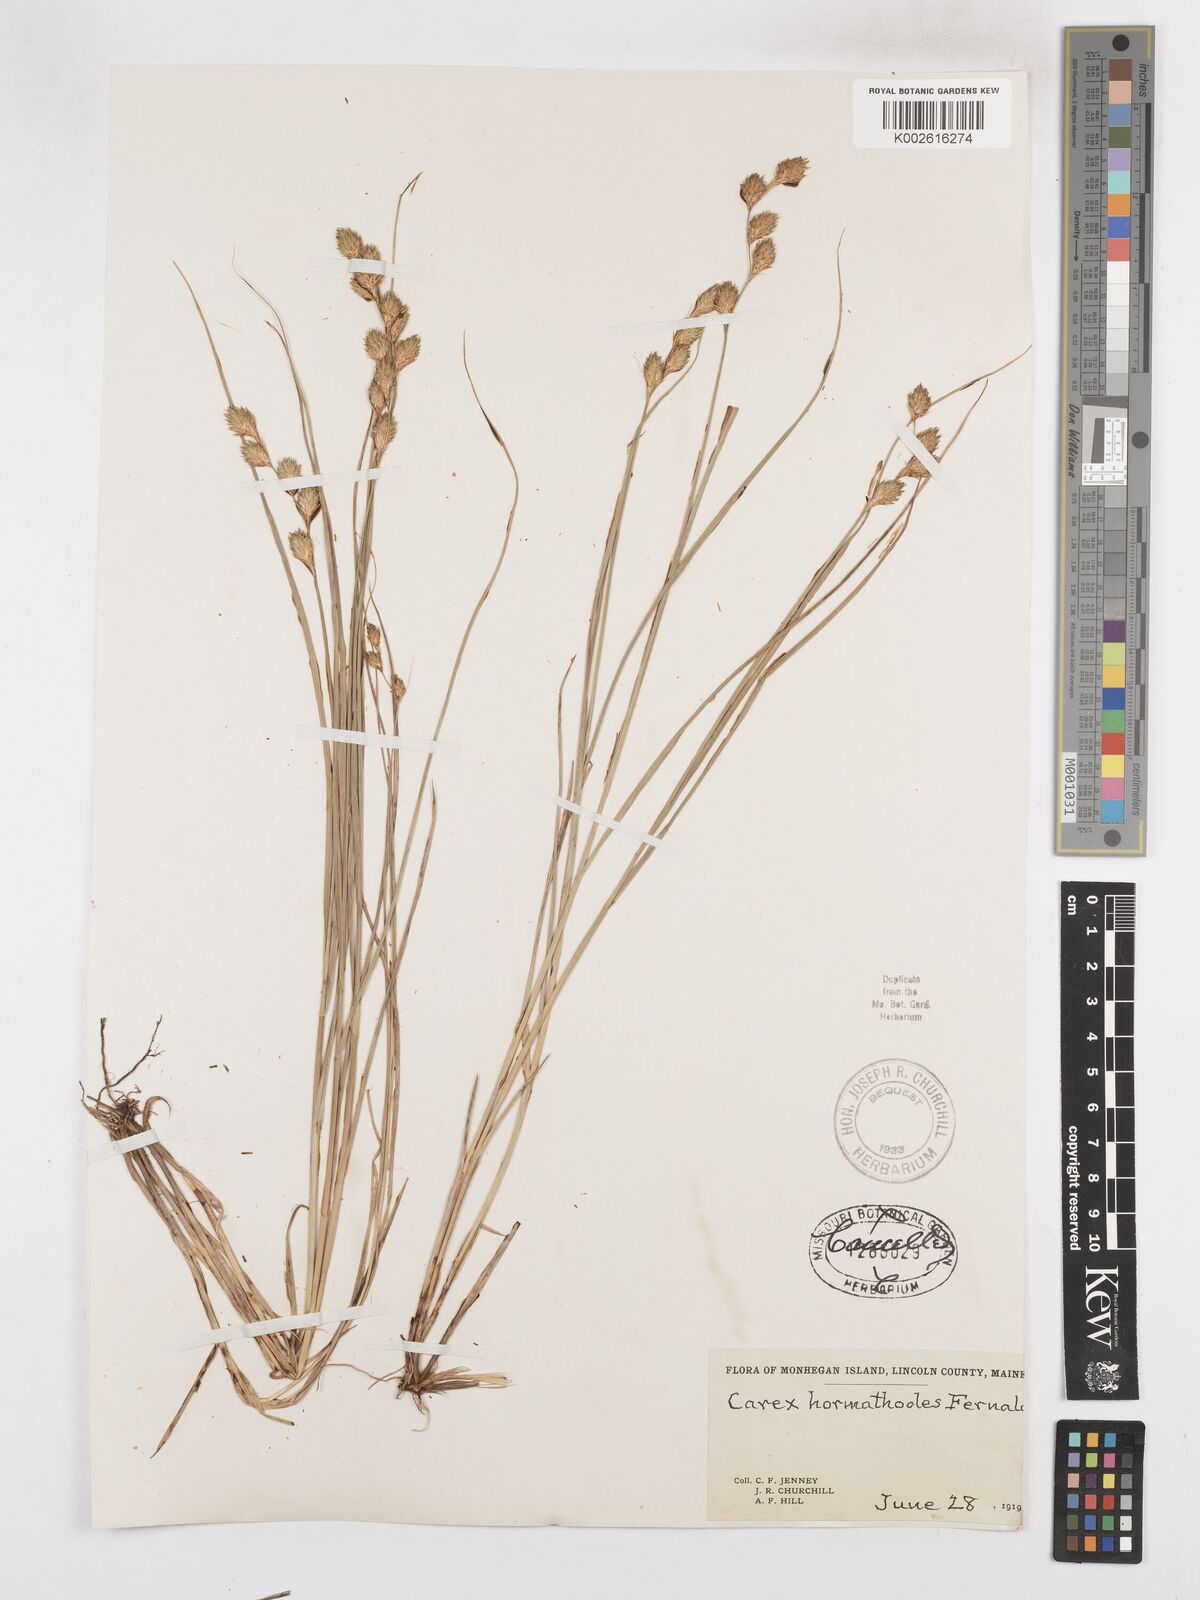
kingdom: Plantae
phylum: Tracheophyta
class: Liliopsida
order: Poales
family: Cyperaceae
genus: Carex
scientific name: Carex hormathodes
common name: Marsh straw sedge
